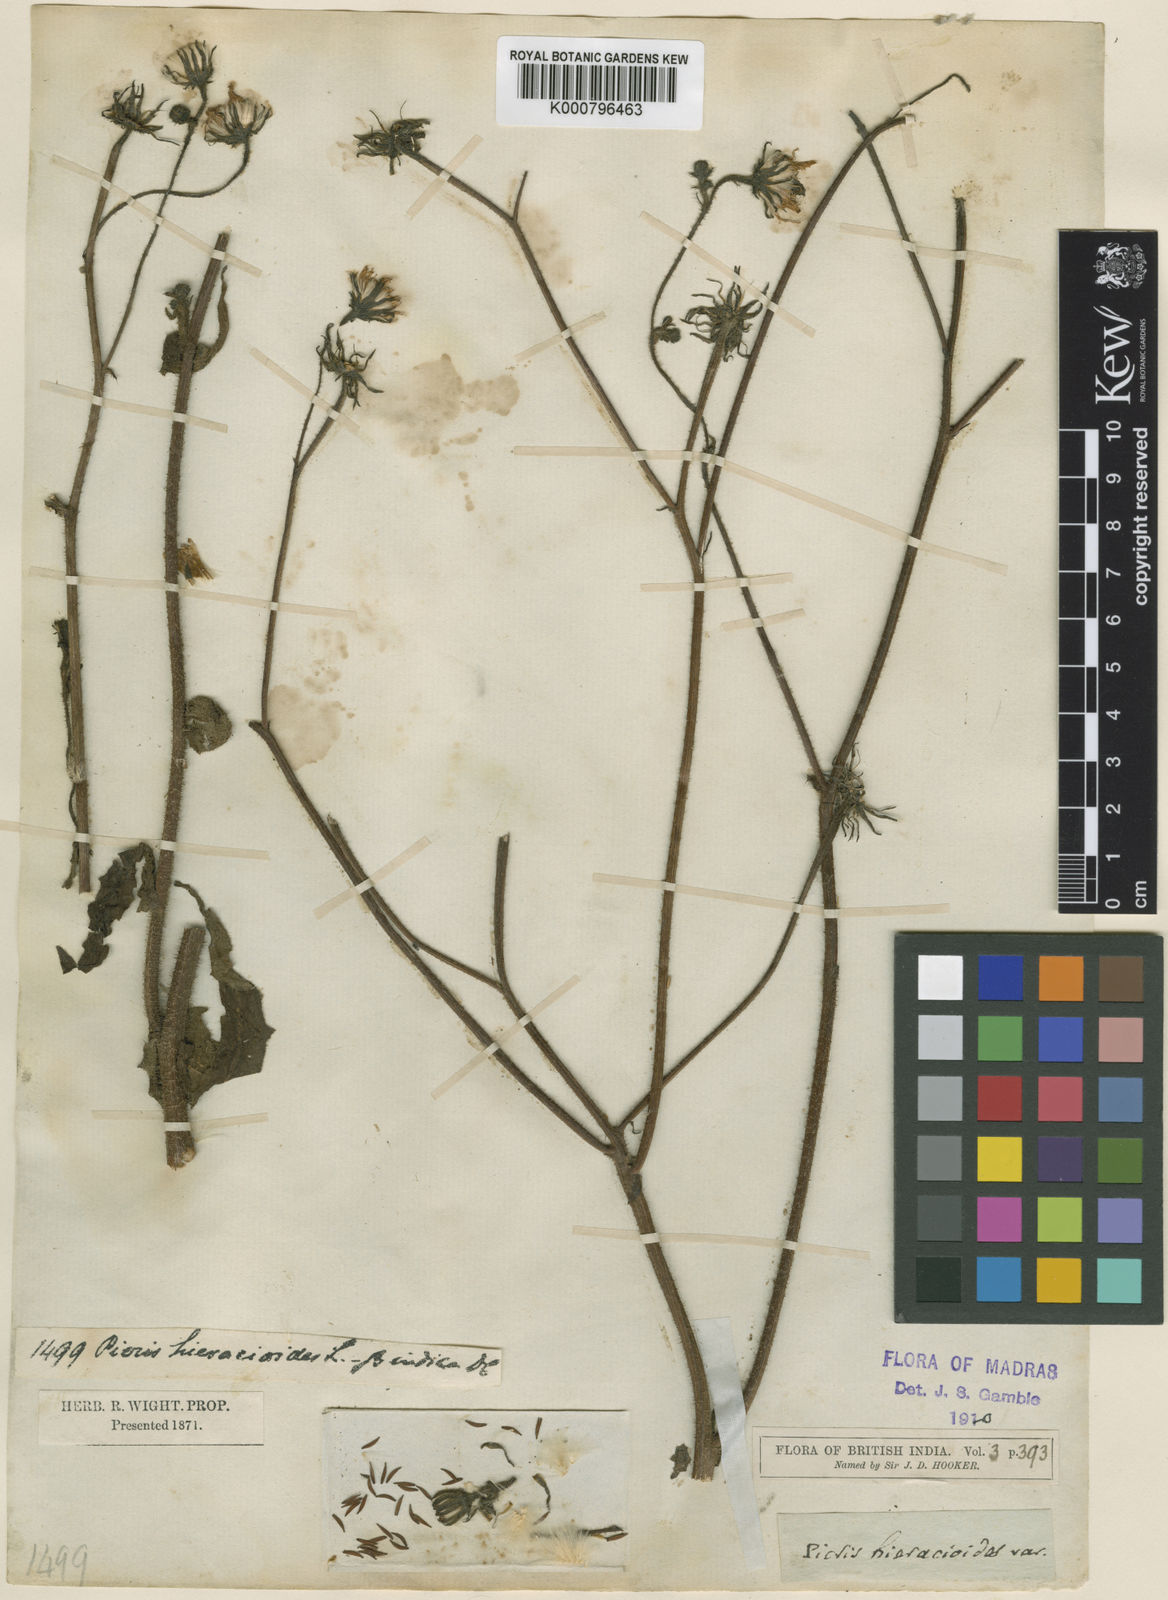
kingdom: Plantae
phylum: Tracheophyta
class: Magnoliopsida
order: Asterales
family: Asteraceae
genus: Picris
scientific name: Picris nuristanica
